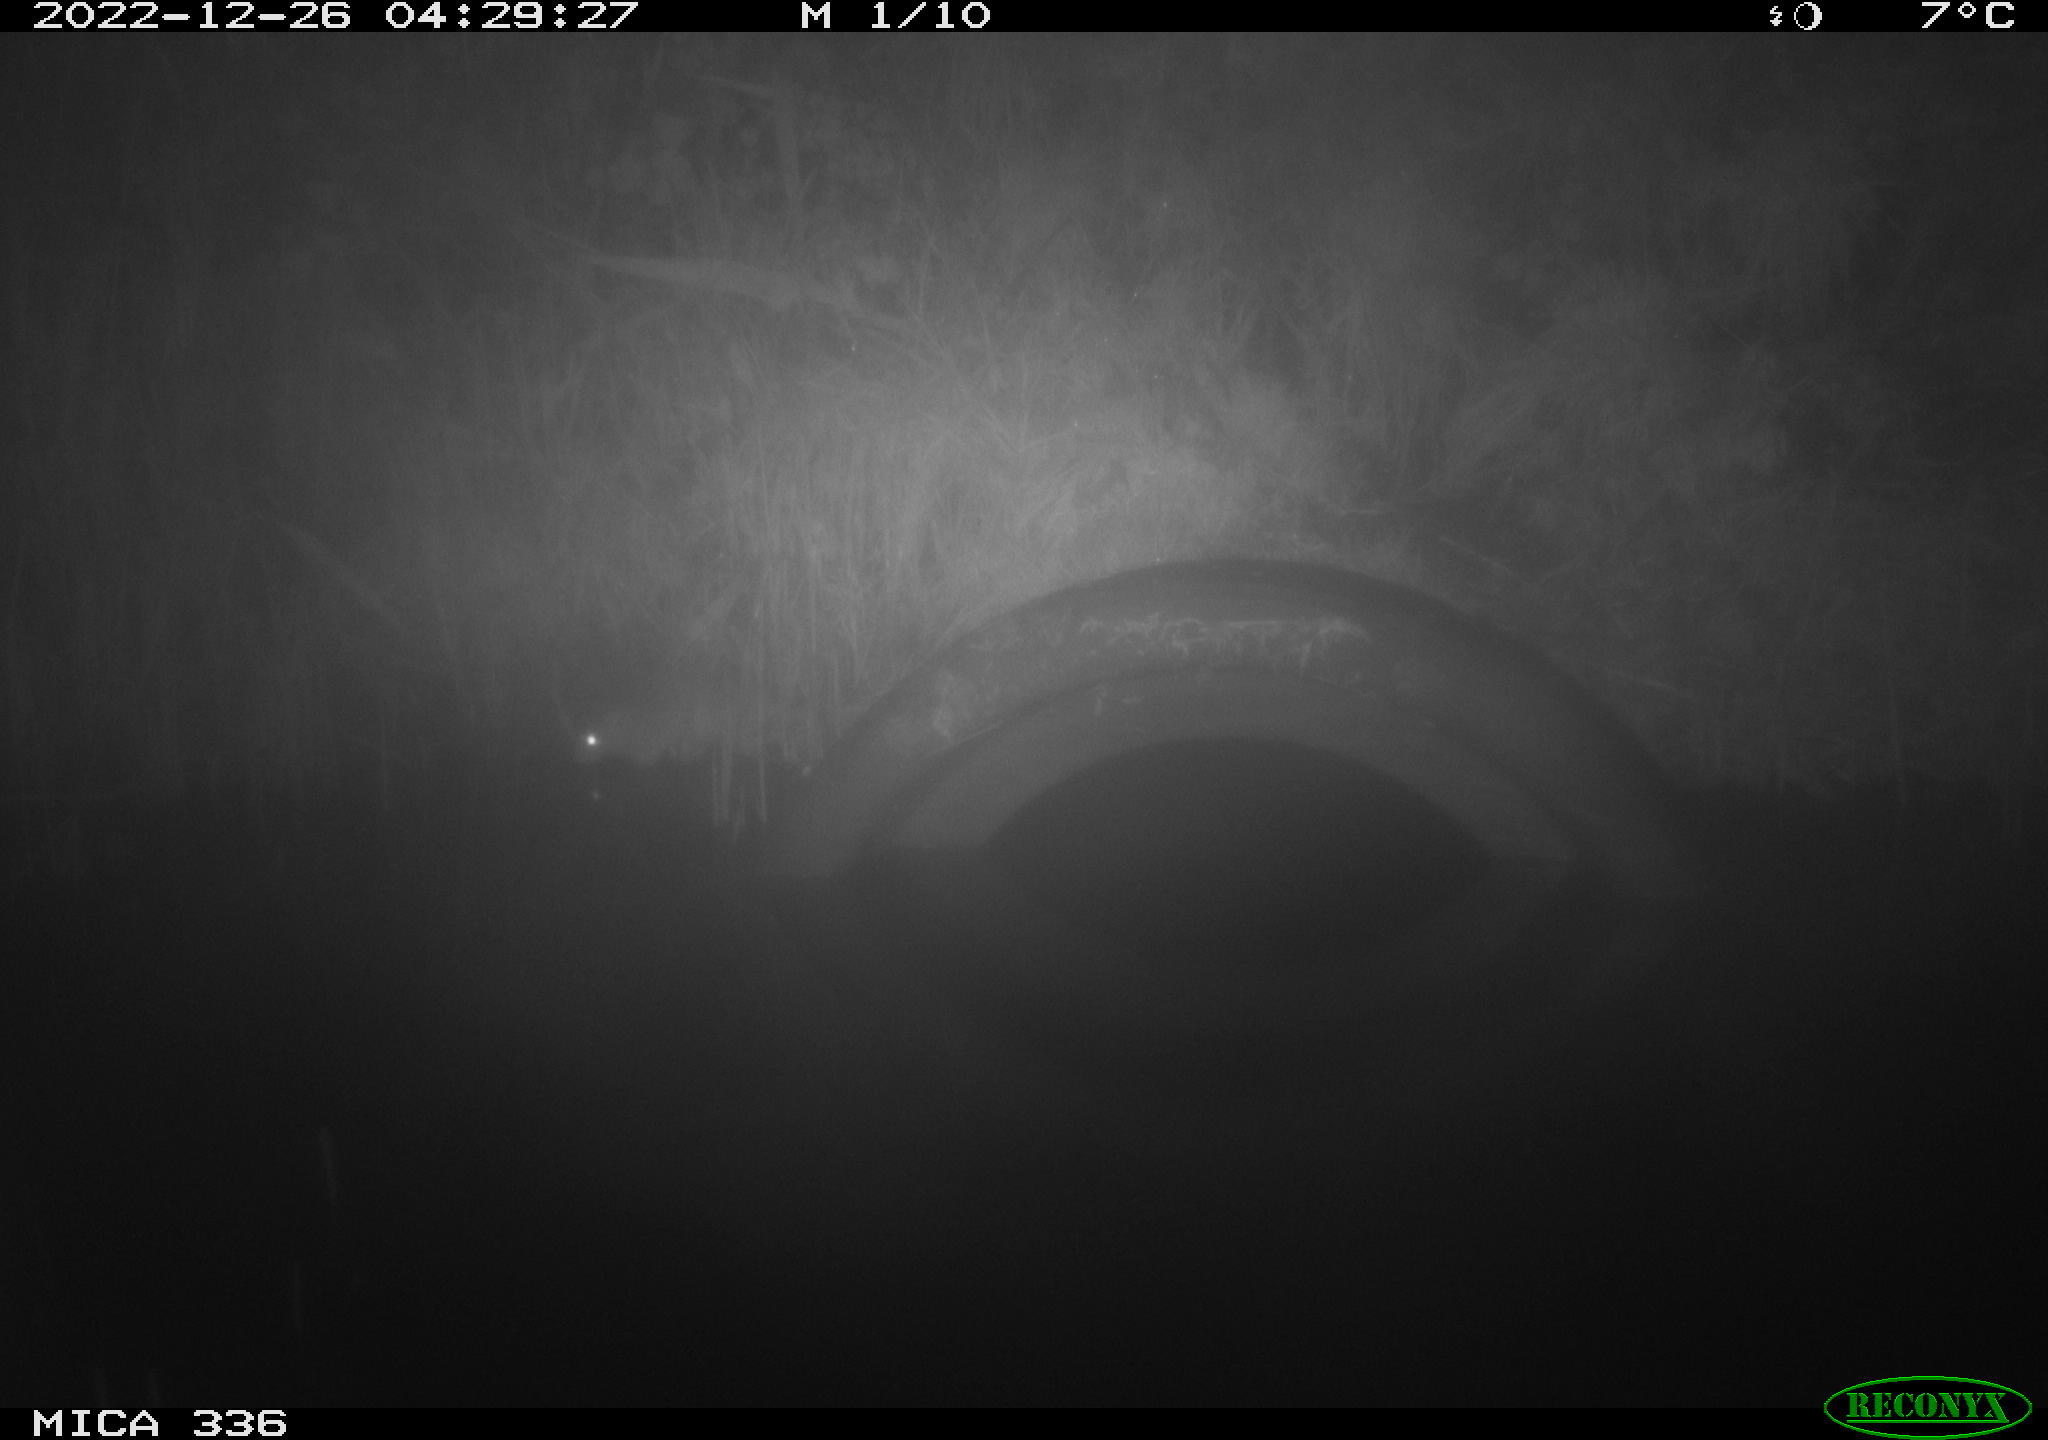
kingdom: Animalia
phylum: Chordata
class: Mammalia
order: Rodentia
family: Muridae
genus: Rattus
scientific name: Rattus norvegicus
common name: Brown rat
